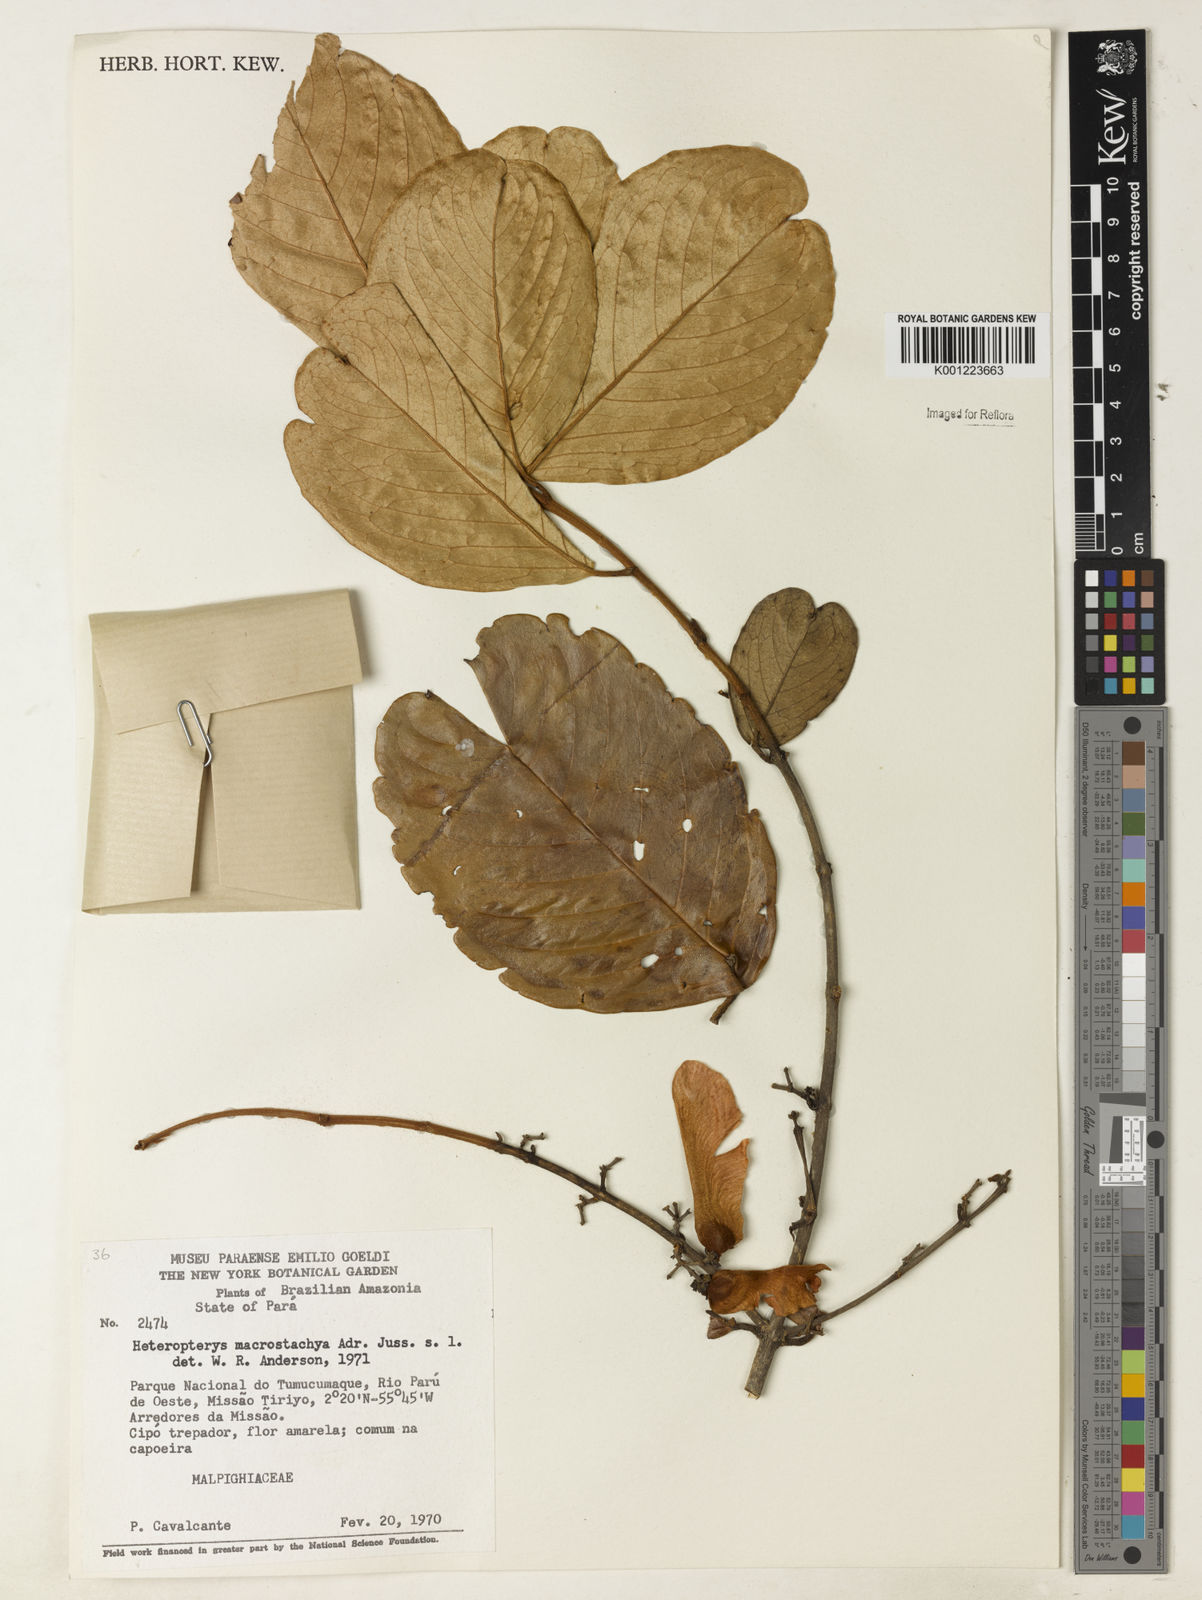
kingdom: Plantae
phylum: Tracheophyta
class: Magnoliopsida
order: Malpighiales
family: Malpighiaceae
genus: Heteropterys
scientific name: Heteropterys macrostachya
